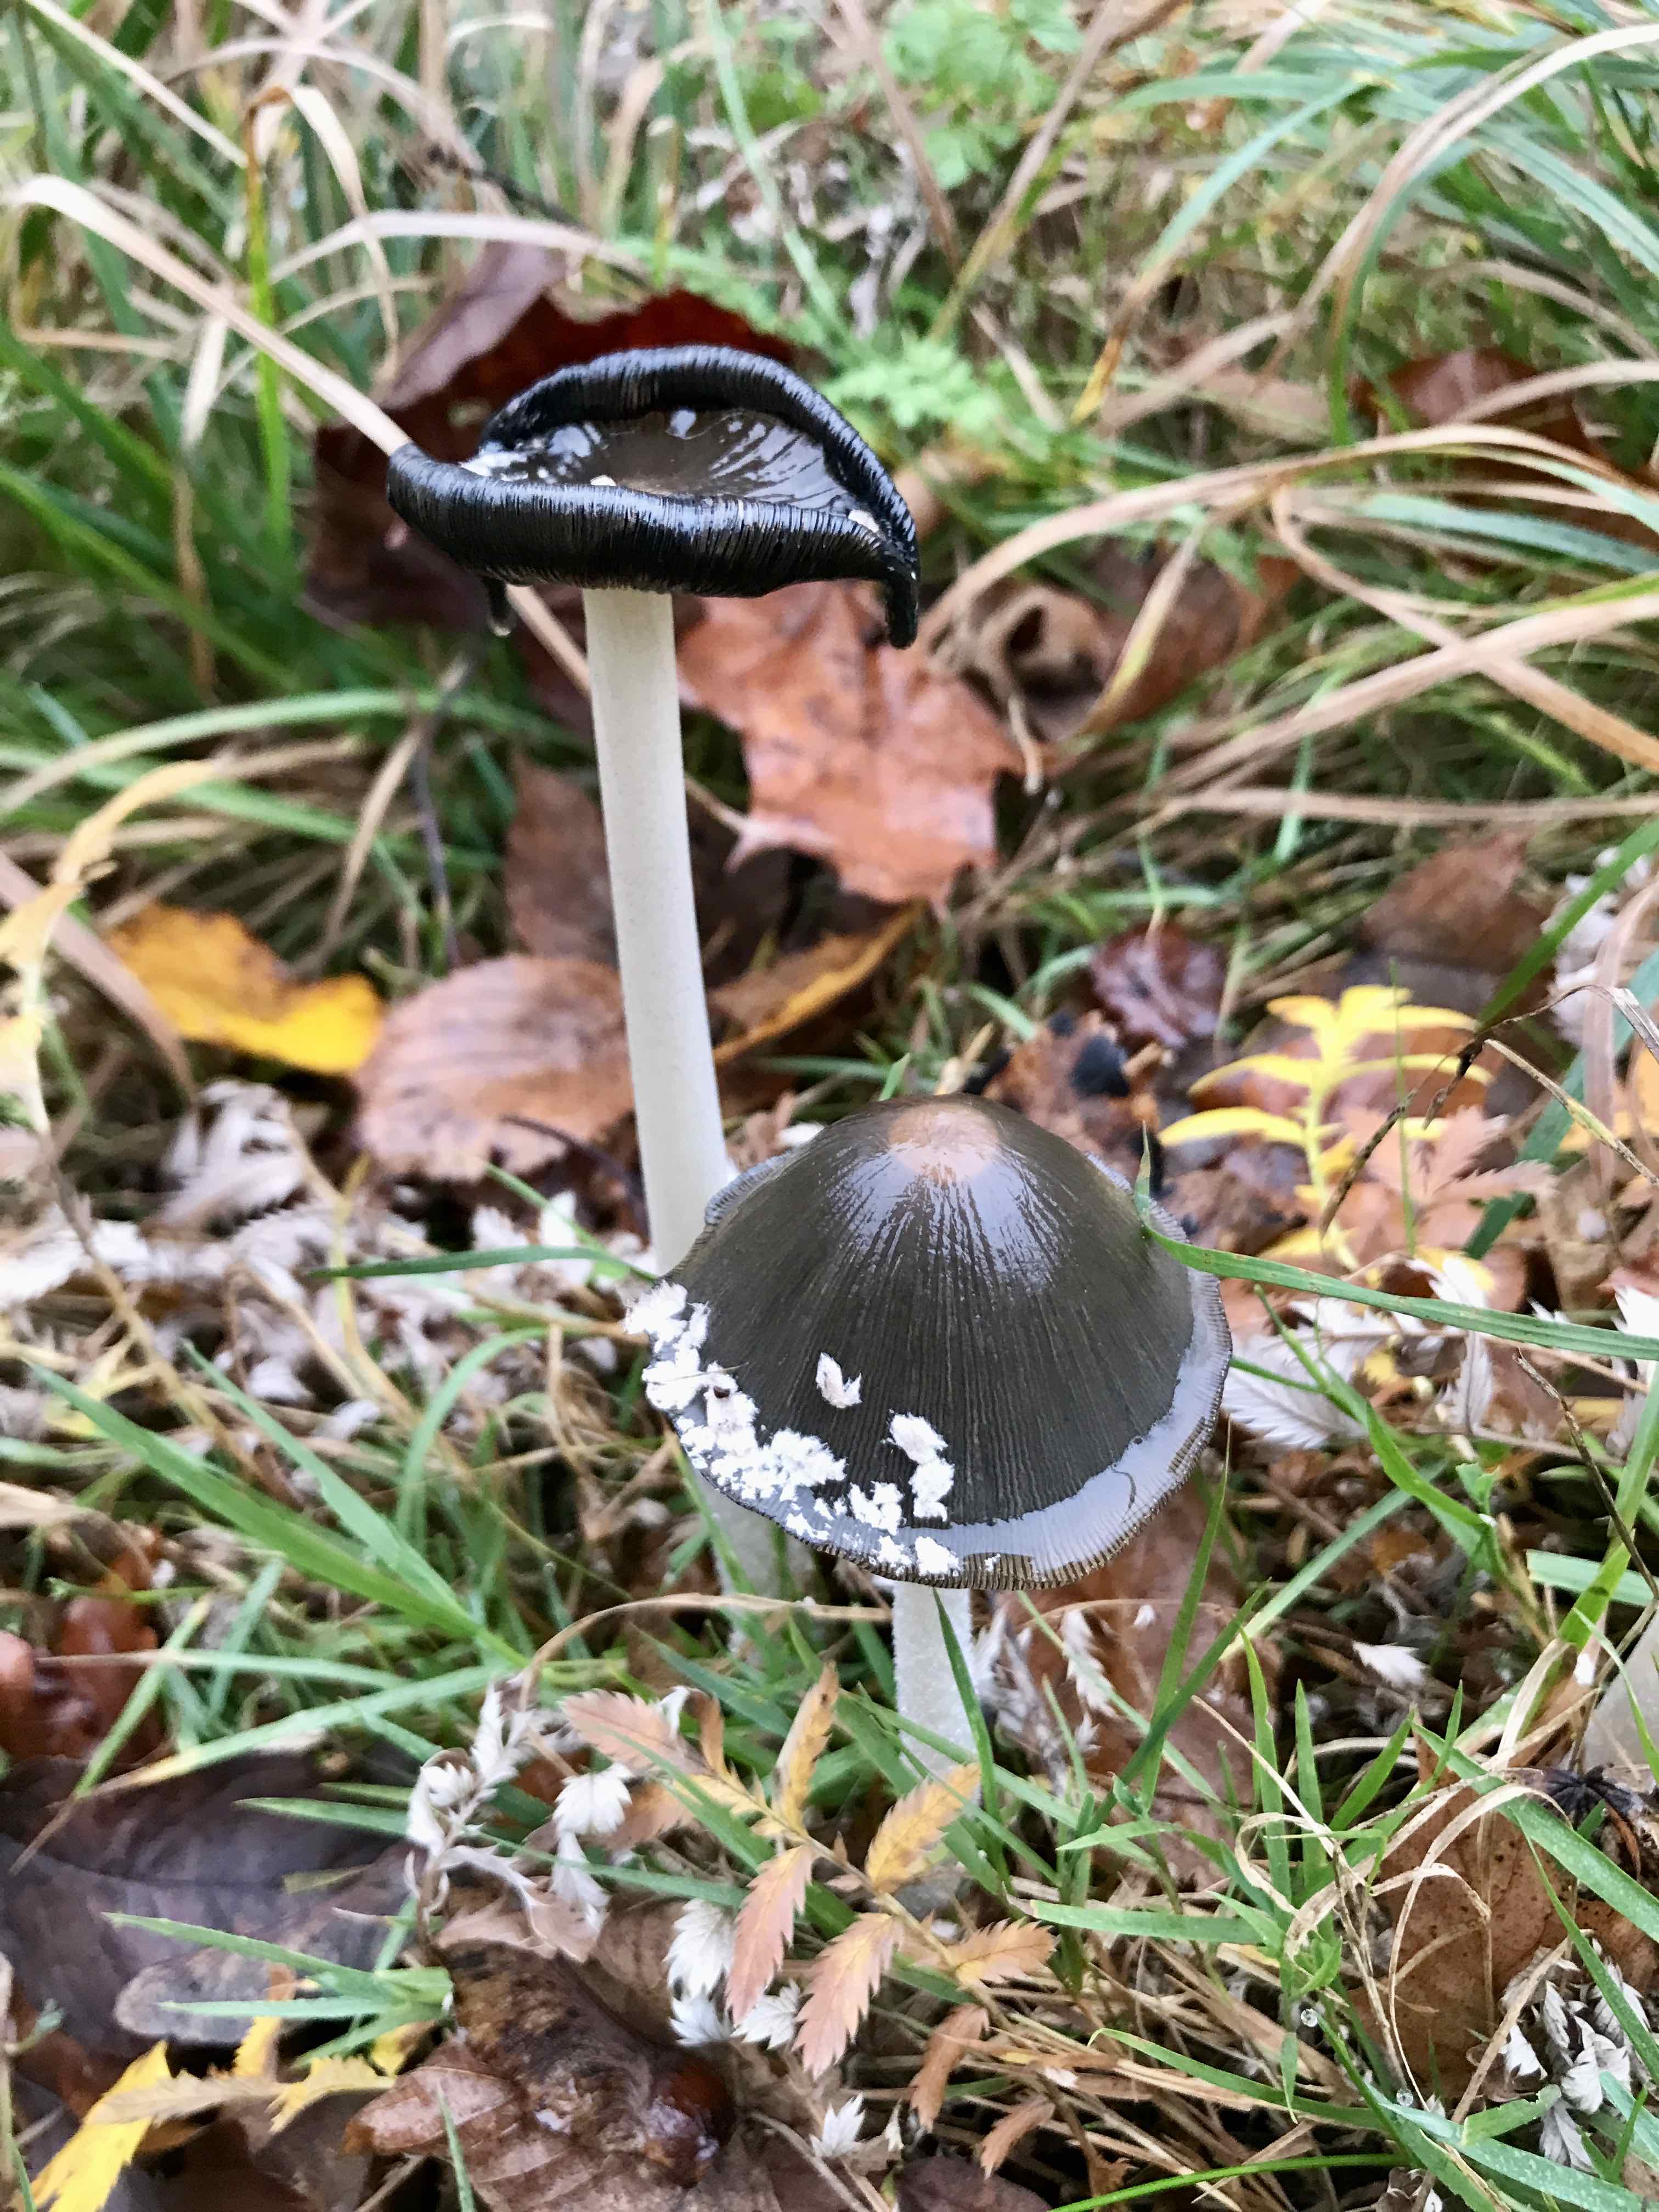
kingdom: Fungi
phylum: Basidiomycota
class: Agaricomycetes
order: Agaricales
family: Psathyrellaceae
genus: Coprinopsis
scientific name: Coprinopsis picacea
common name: skade-blækhat
